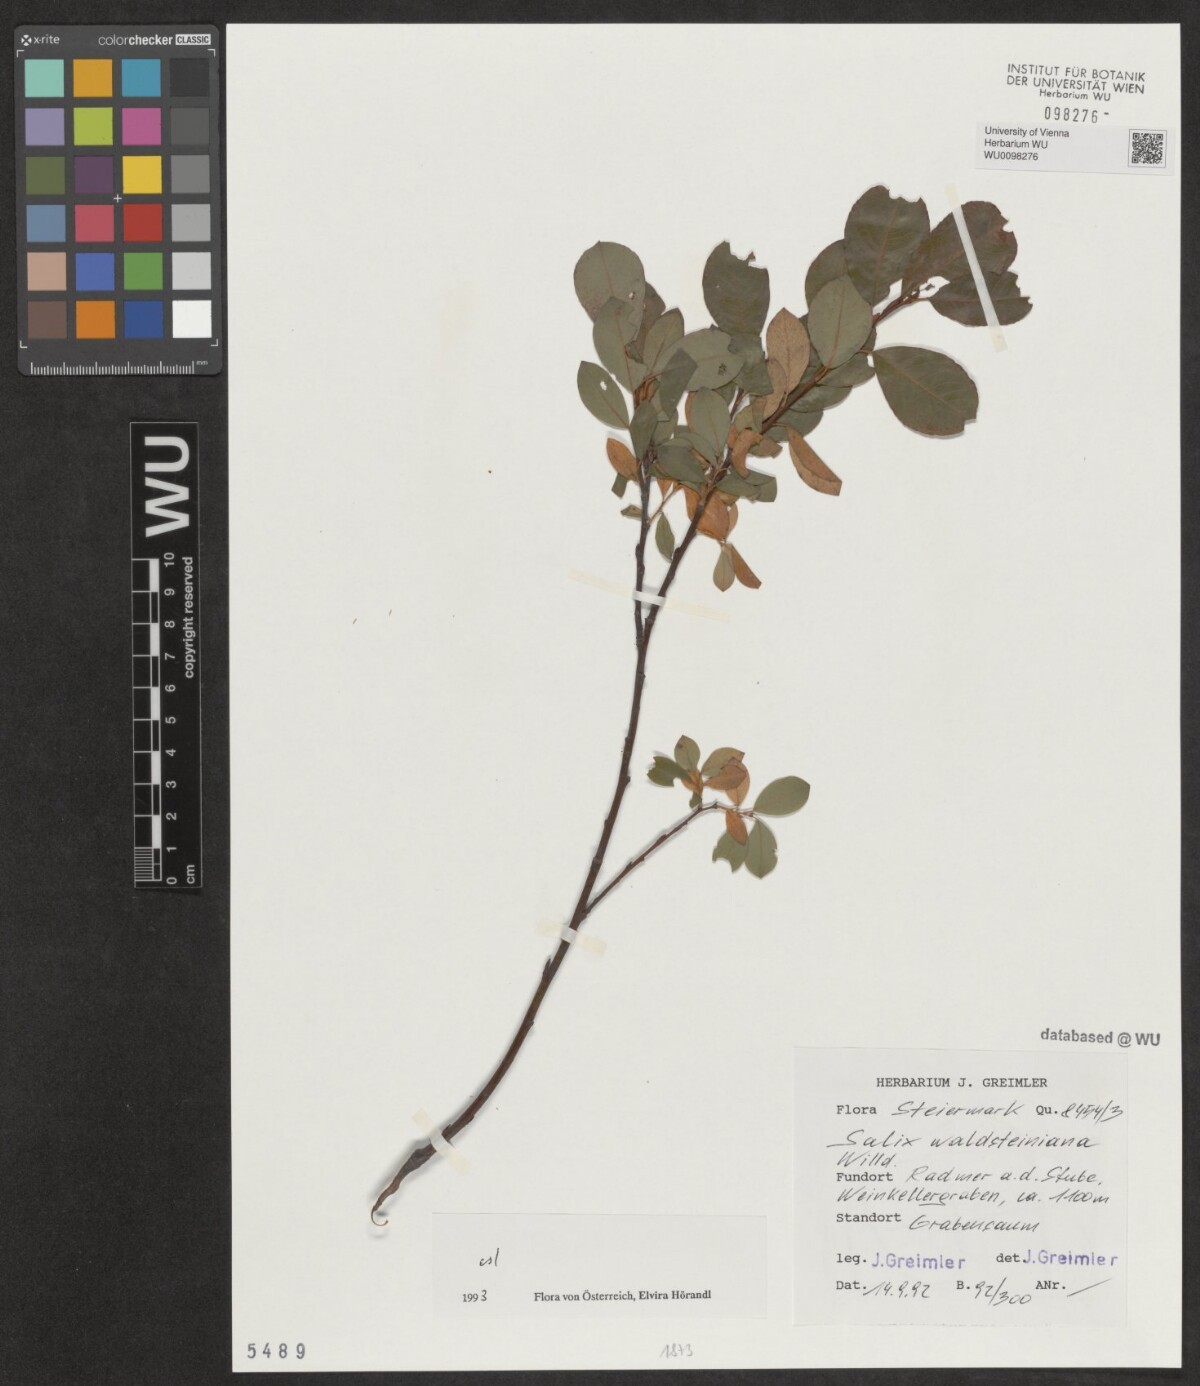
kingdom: Plantae
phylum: Tracheophyta
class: Magnoliopsida
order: Malpighiales
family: Salicaceae
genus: Salix
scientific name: Salix waldsteiniana
